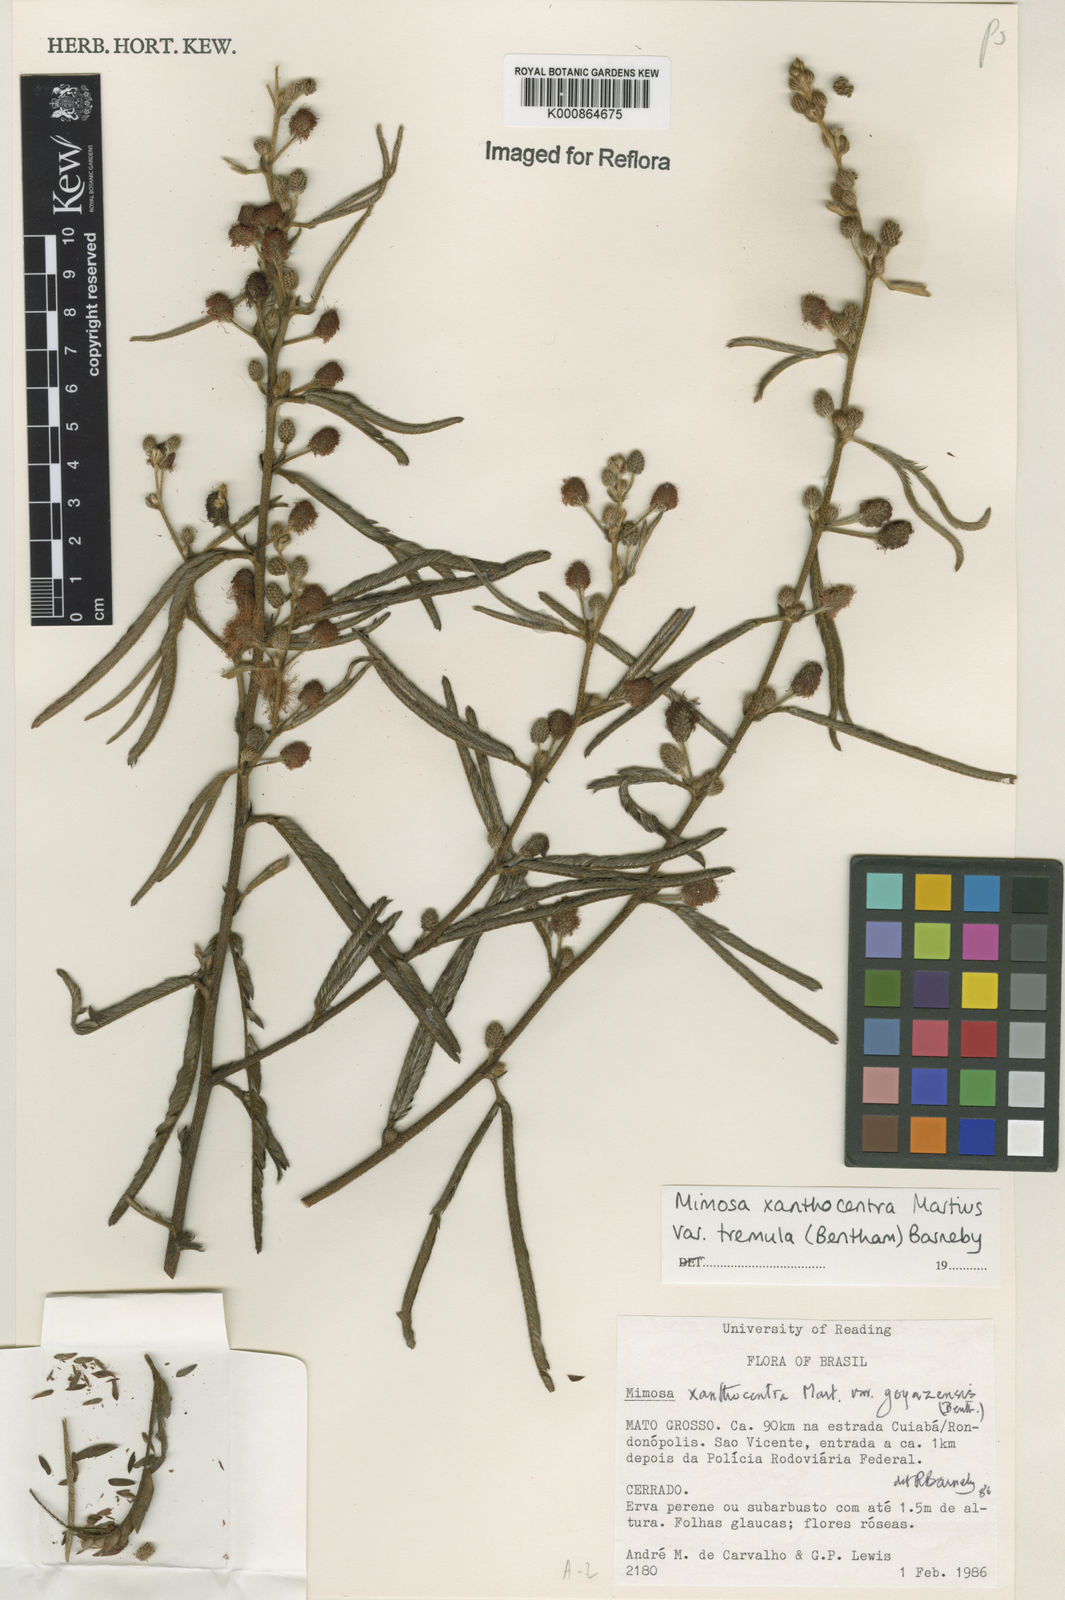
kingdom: Plantae
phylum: Tracheophyta
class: Magnoliopsida
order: Fabales
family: Fabaceae
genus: Mimosa
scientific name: Mimosa xanthocentra
